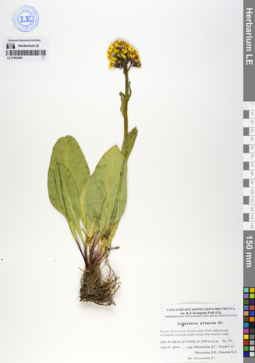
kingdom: Plantae
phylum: Tracheophyta
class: Magnoliopsida
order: Asterales
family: Asteraceae
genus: Ligularia
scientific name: Ligularia altaica
